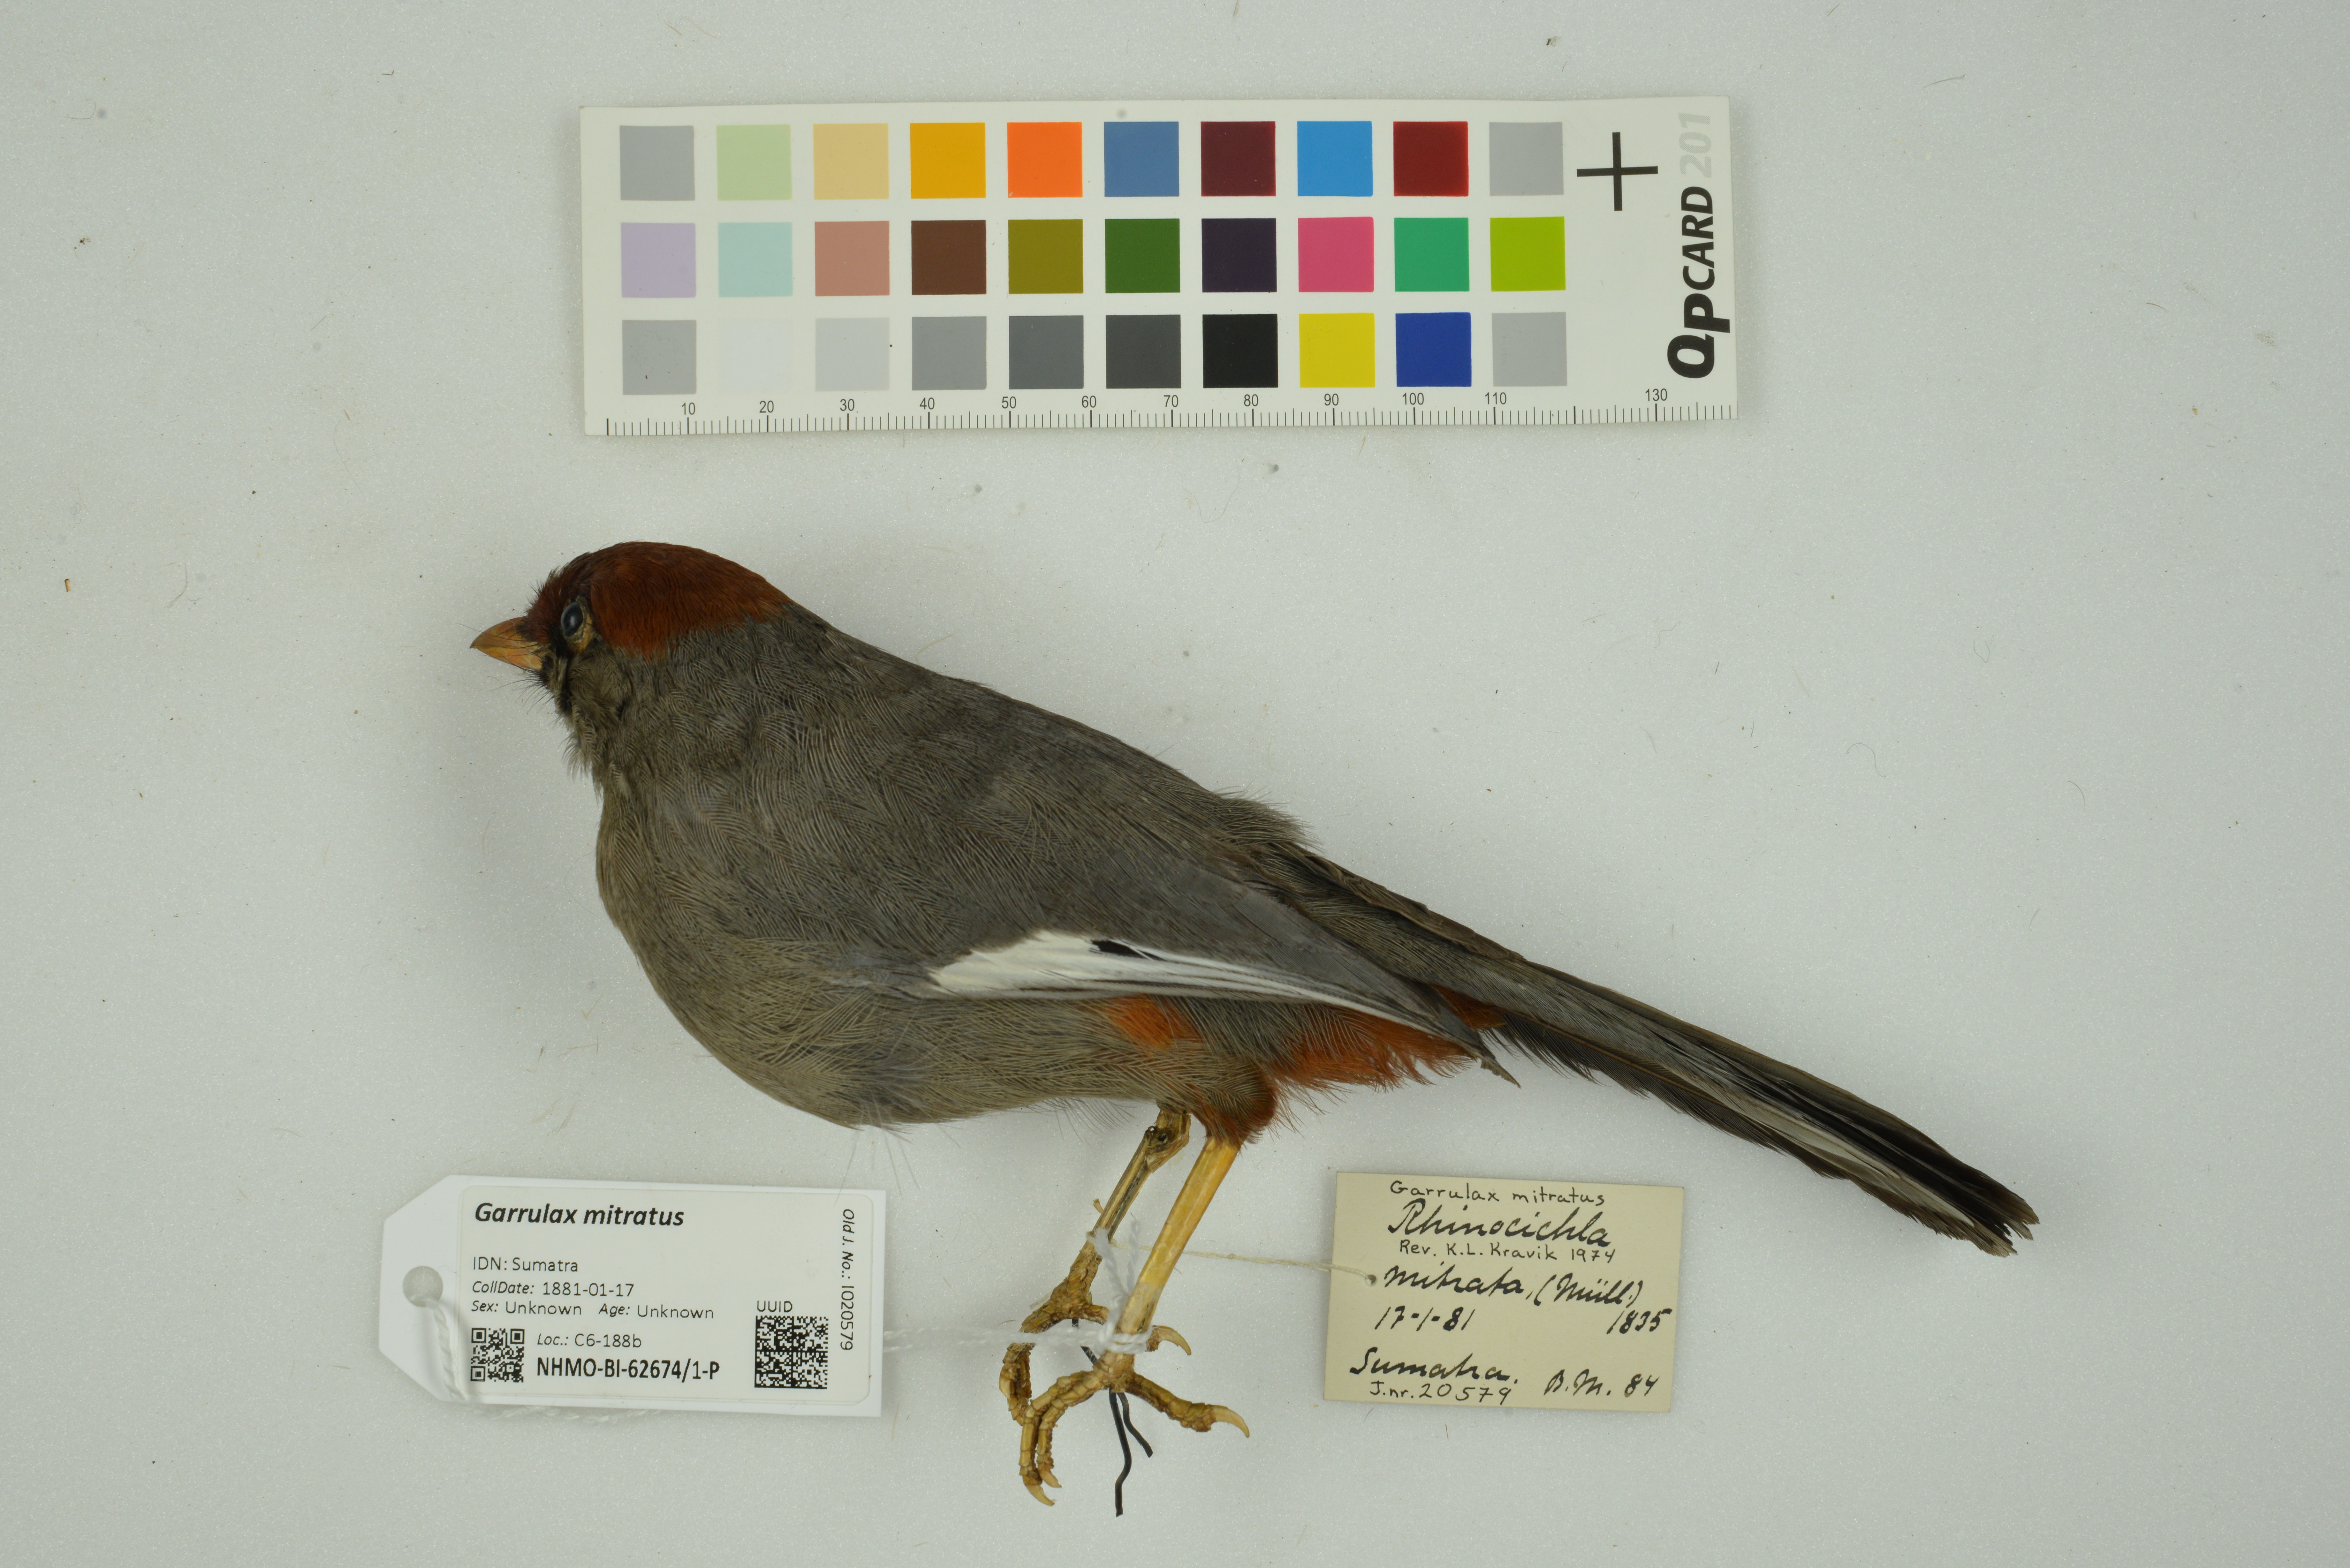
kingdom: Animalia
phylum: Chordata
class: Aves
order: Passeriformes
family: Leiothrichidae
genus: Garrulax
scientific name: Garrulax mitratus
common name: Chestnut-capped laughingthrush
